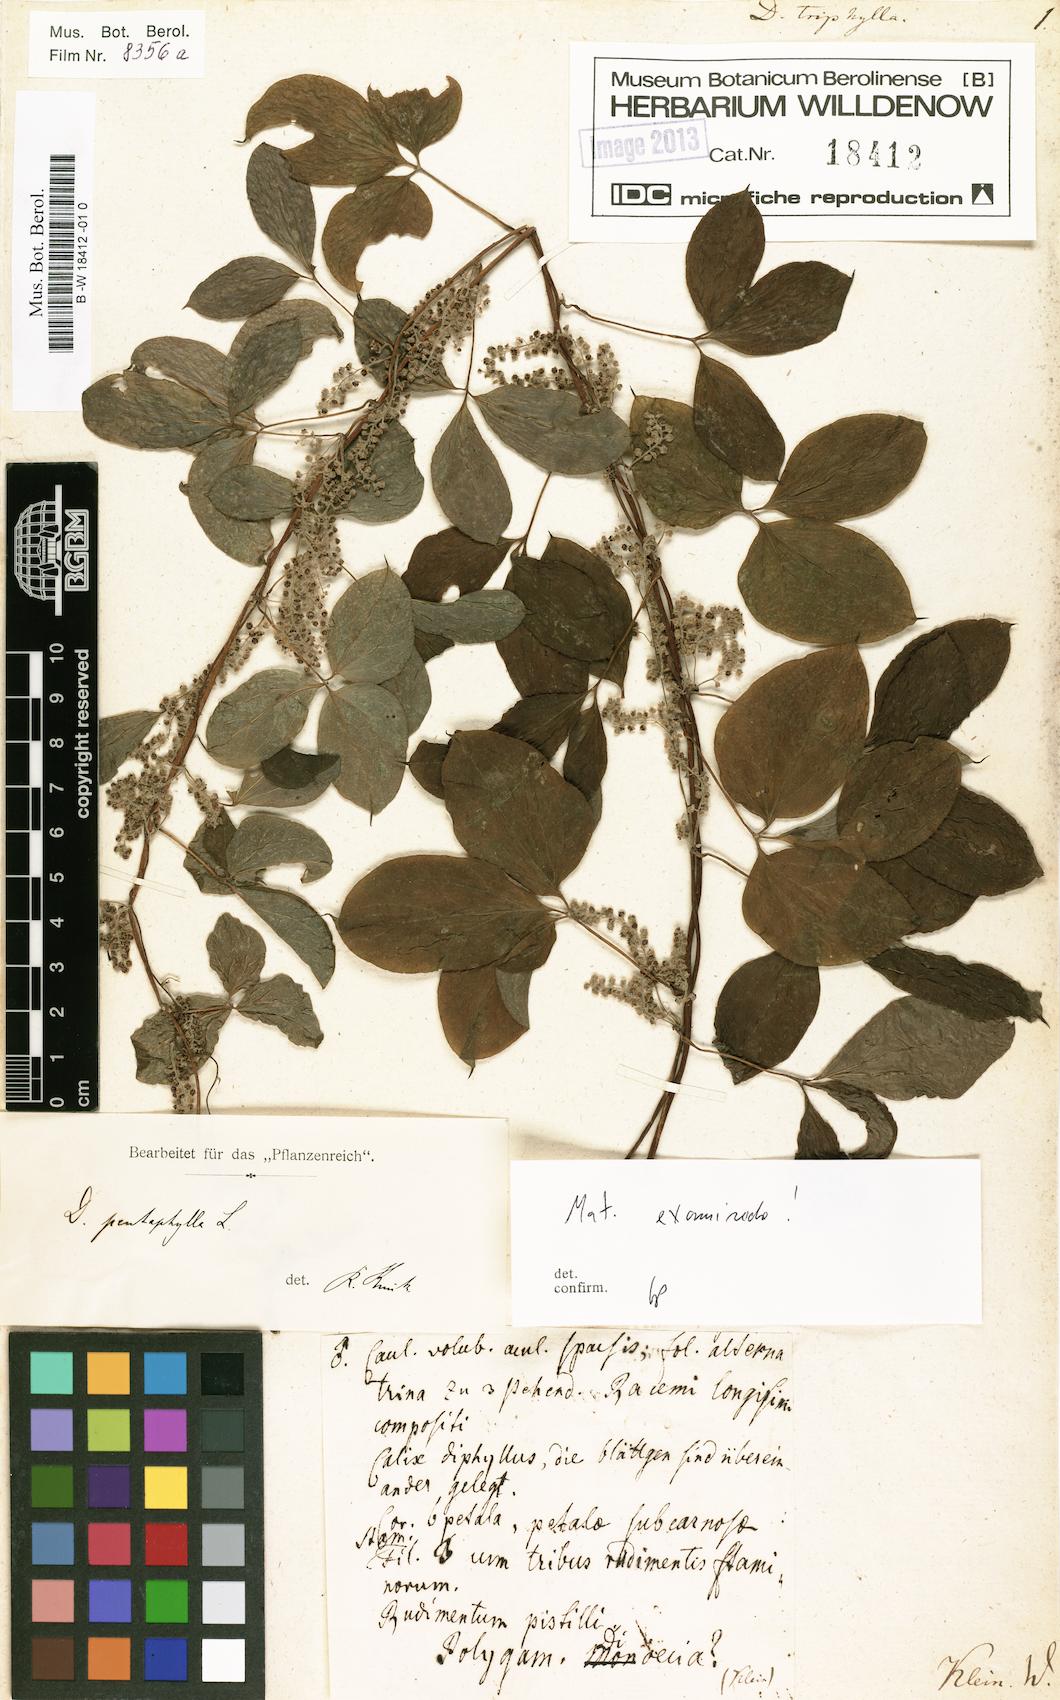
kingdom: Plantae
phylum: Tracheophyta
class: Liliopsida
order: Dioscoreales
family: Dioscoreaceae
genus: Dioscorea
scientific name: Dioscorea pentaphylla
